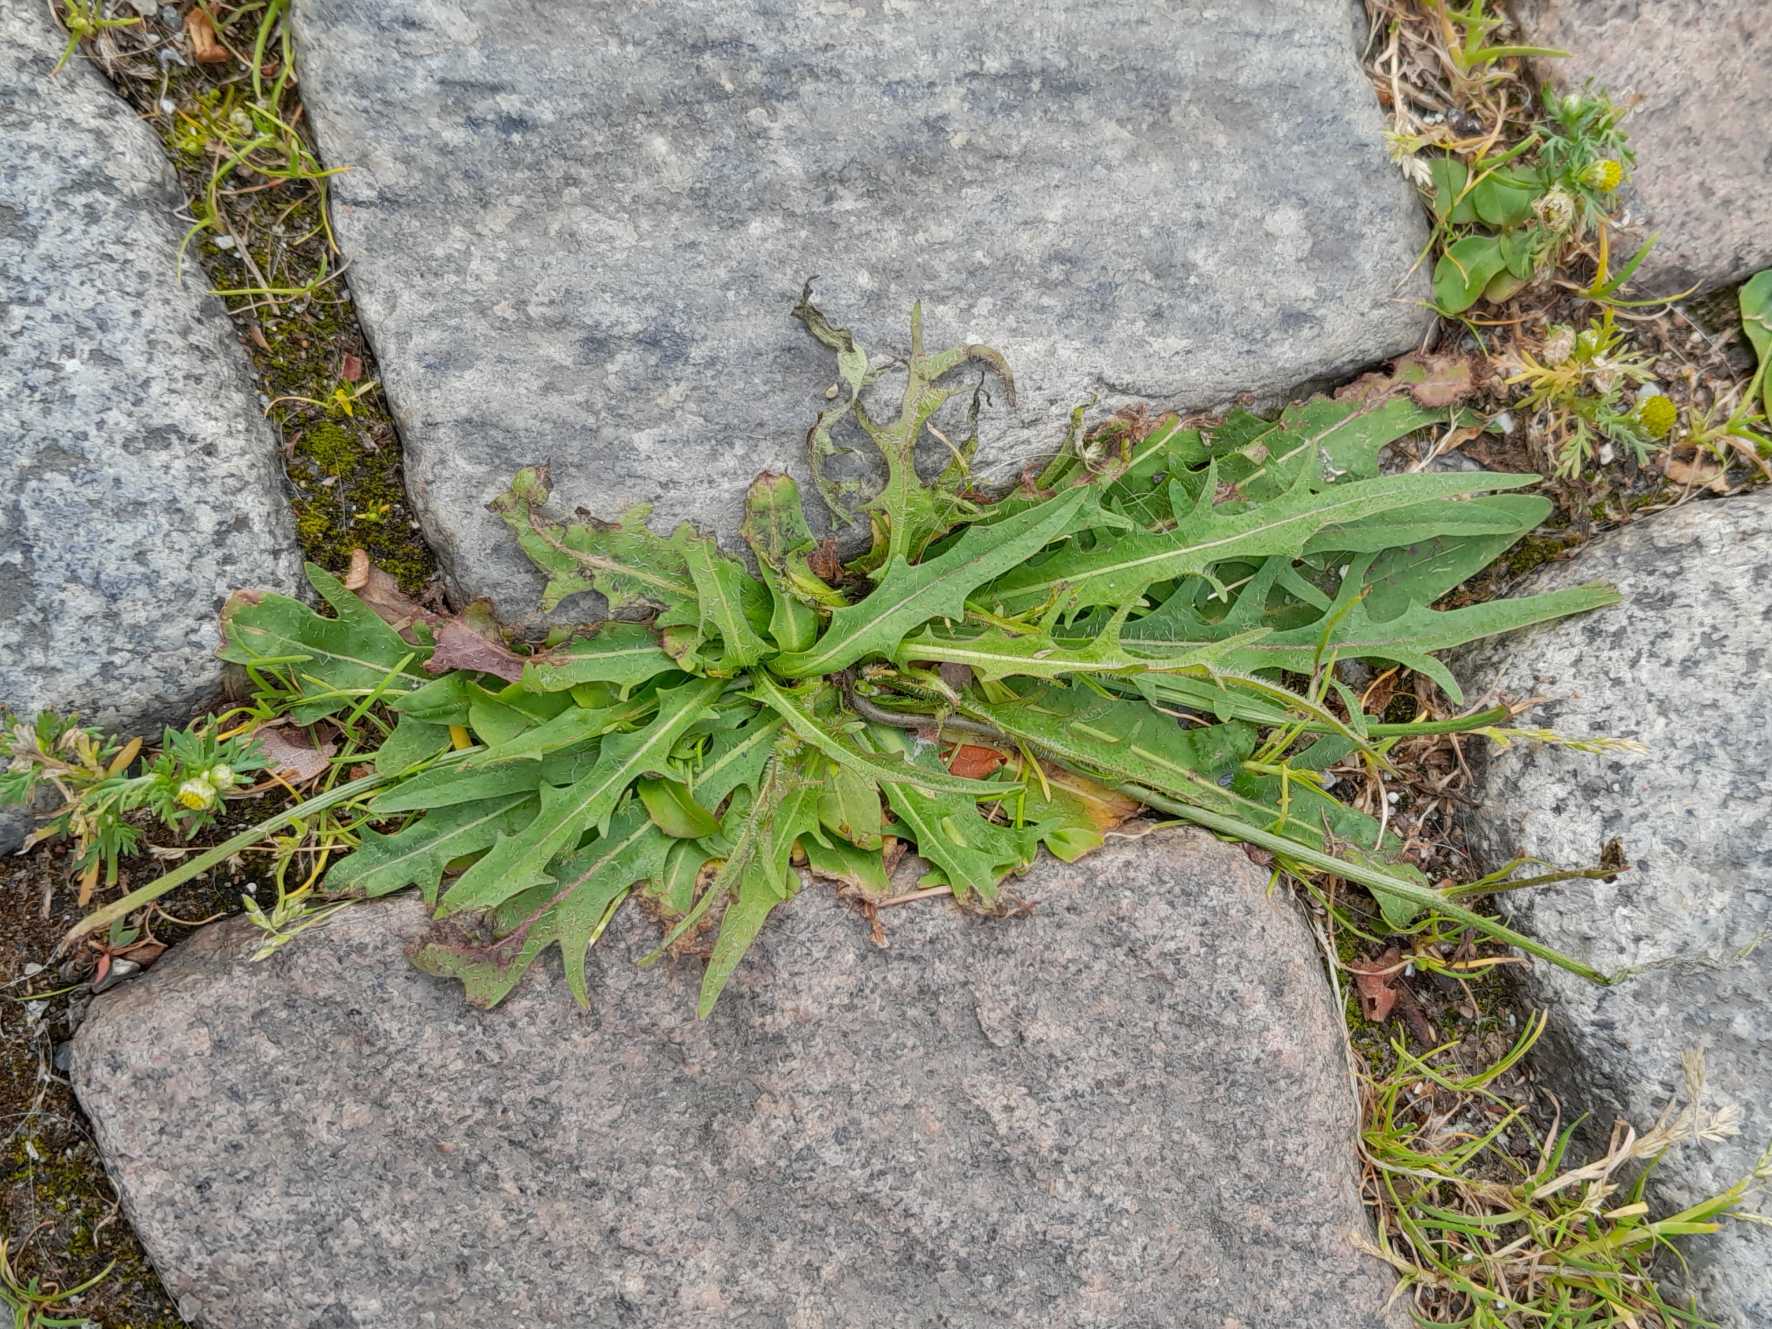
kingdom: Plantae
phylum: Tracheophyta
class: Magnoliopsida
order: Asterales
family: Asteraceae
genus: Scorzoneroides
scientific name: Scorzoneroides autumnalis
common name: Høst-borst
